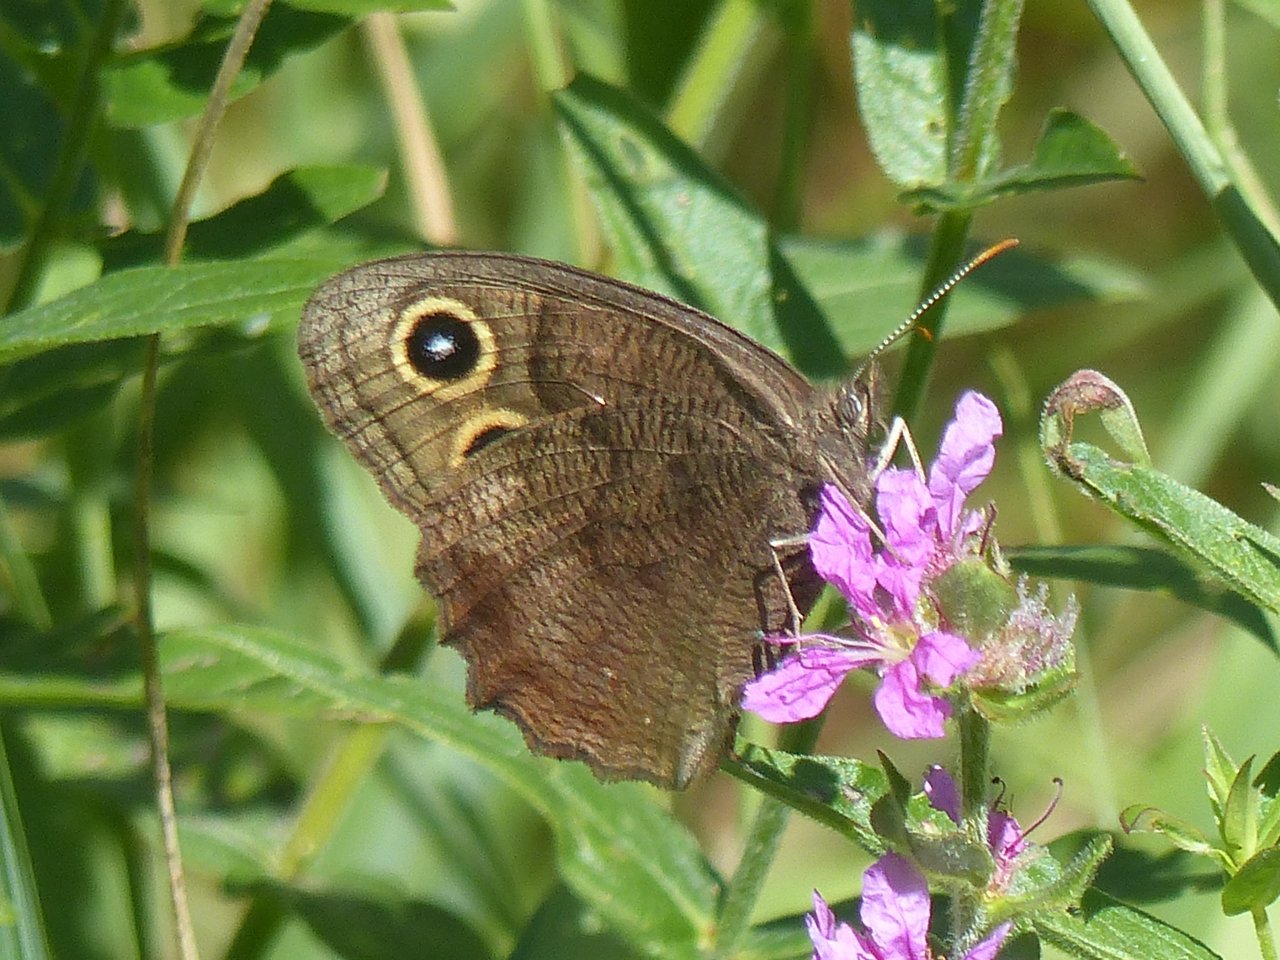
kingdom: Animalia
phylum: Arthropoda
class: Insecta
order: Lepidoptera
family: Nymphalidae
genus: Cercyonis
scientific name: Cercyonis pegala
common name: Common Wood-Nymph
